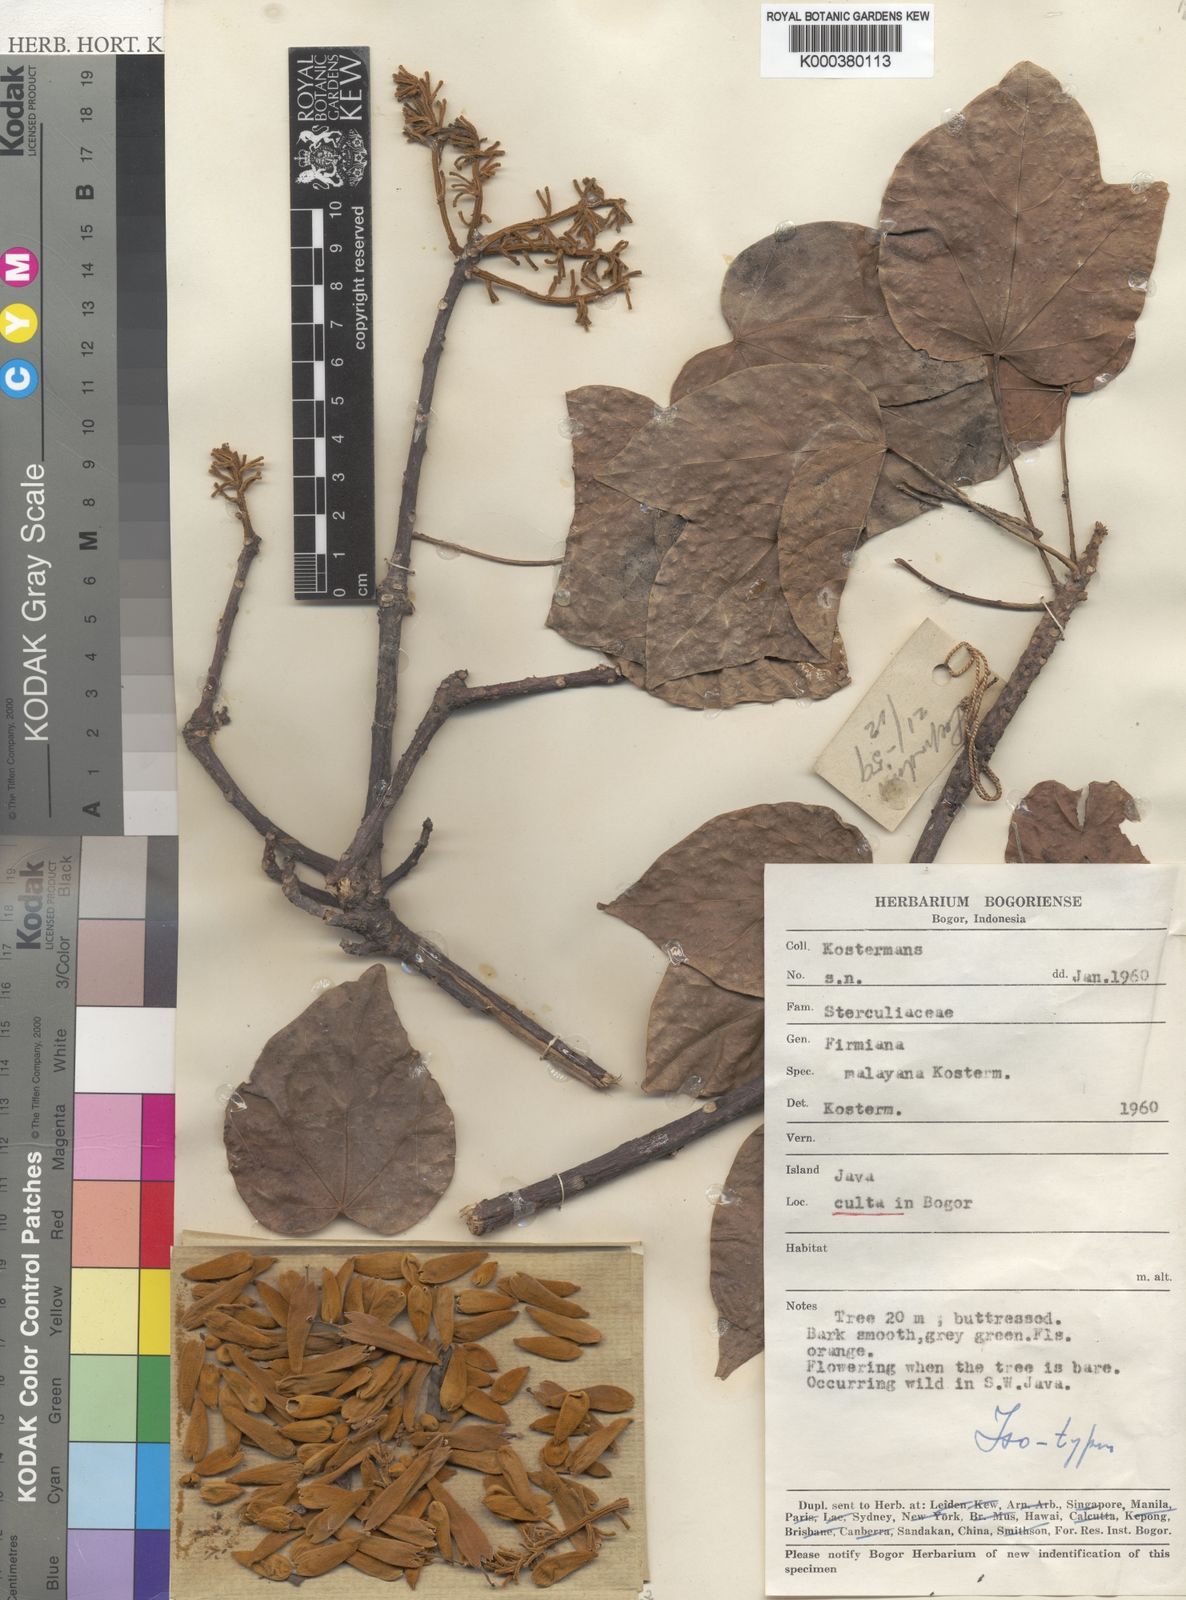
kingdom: Plantae
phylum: Tracheophyta
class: Magnoliopsida
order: Malvales
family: Malvaceae
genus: Firmiana
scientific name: Firmiana malayana
